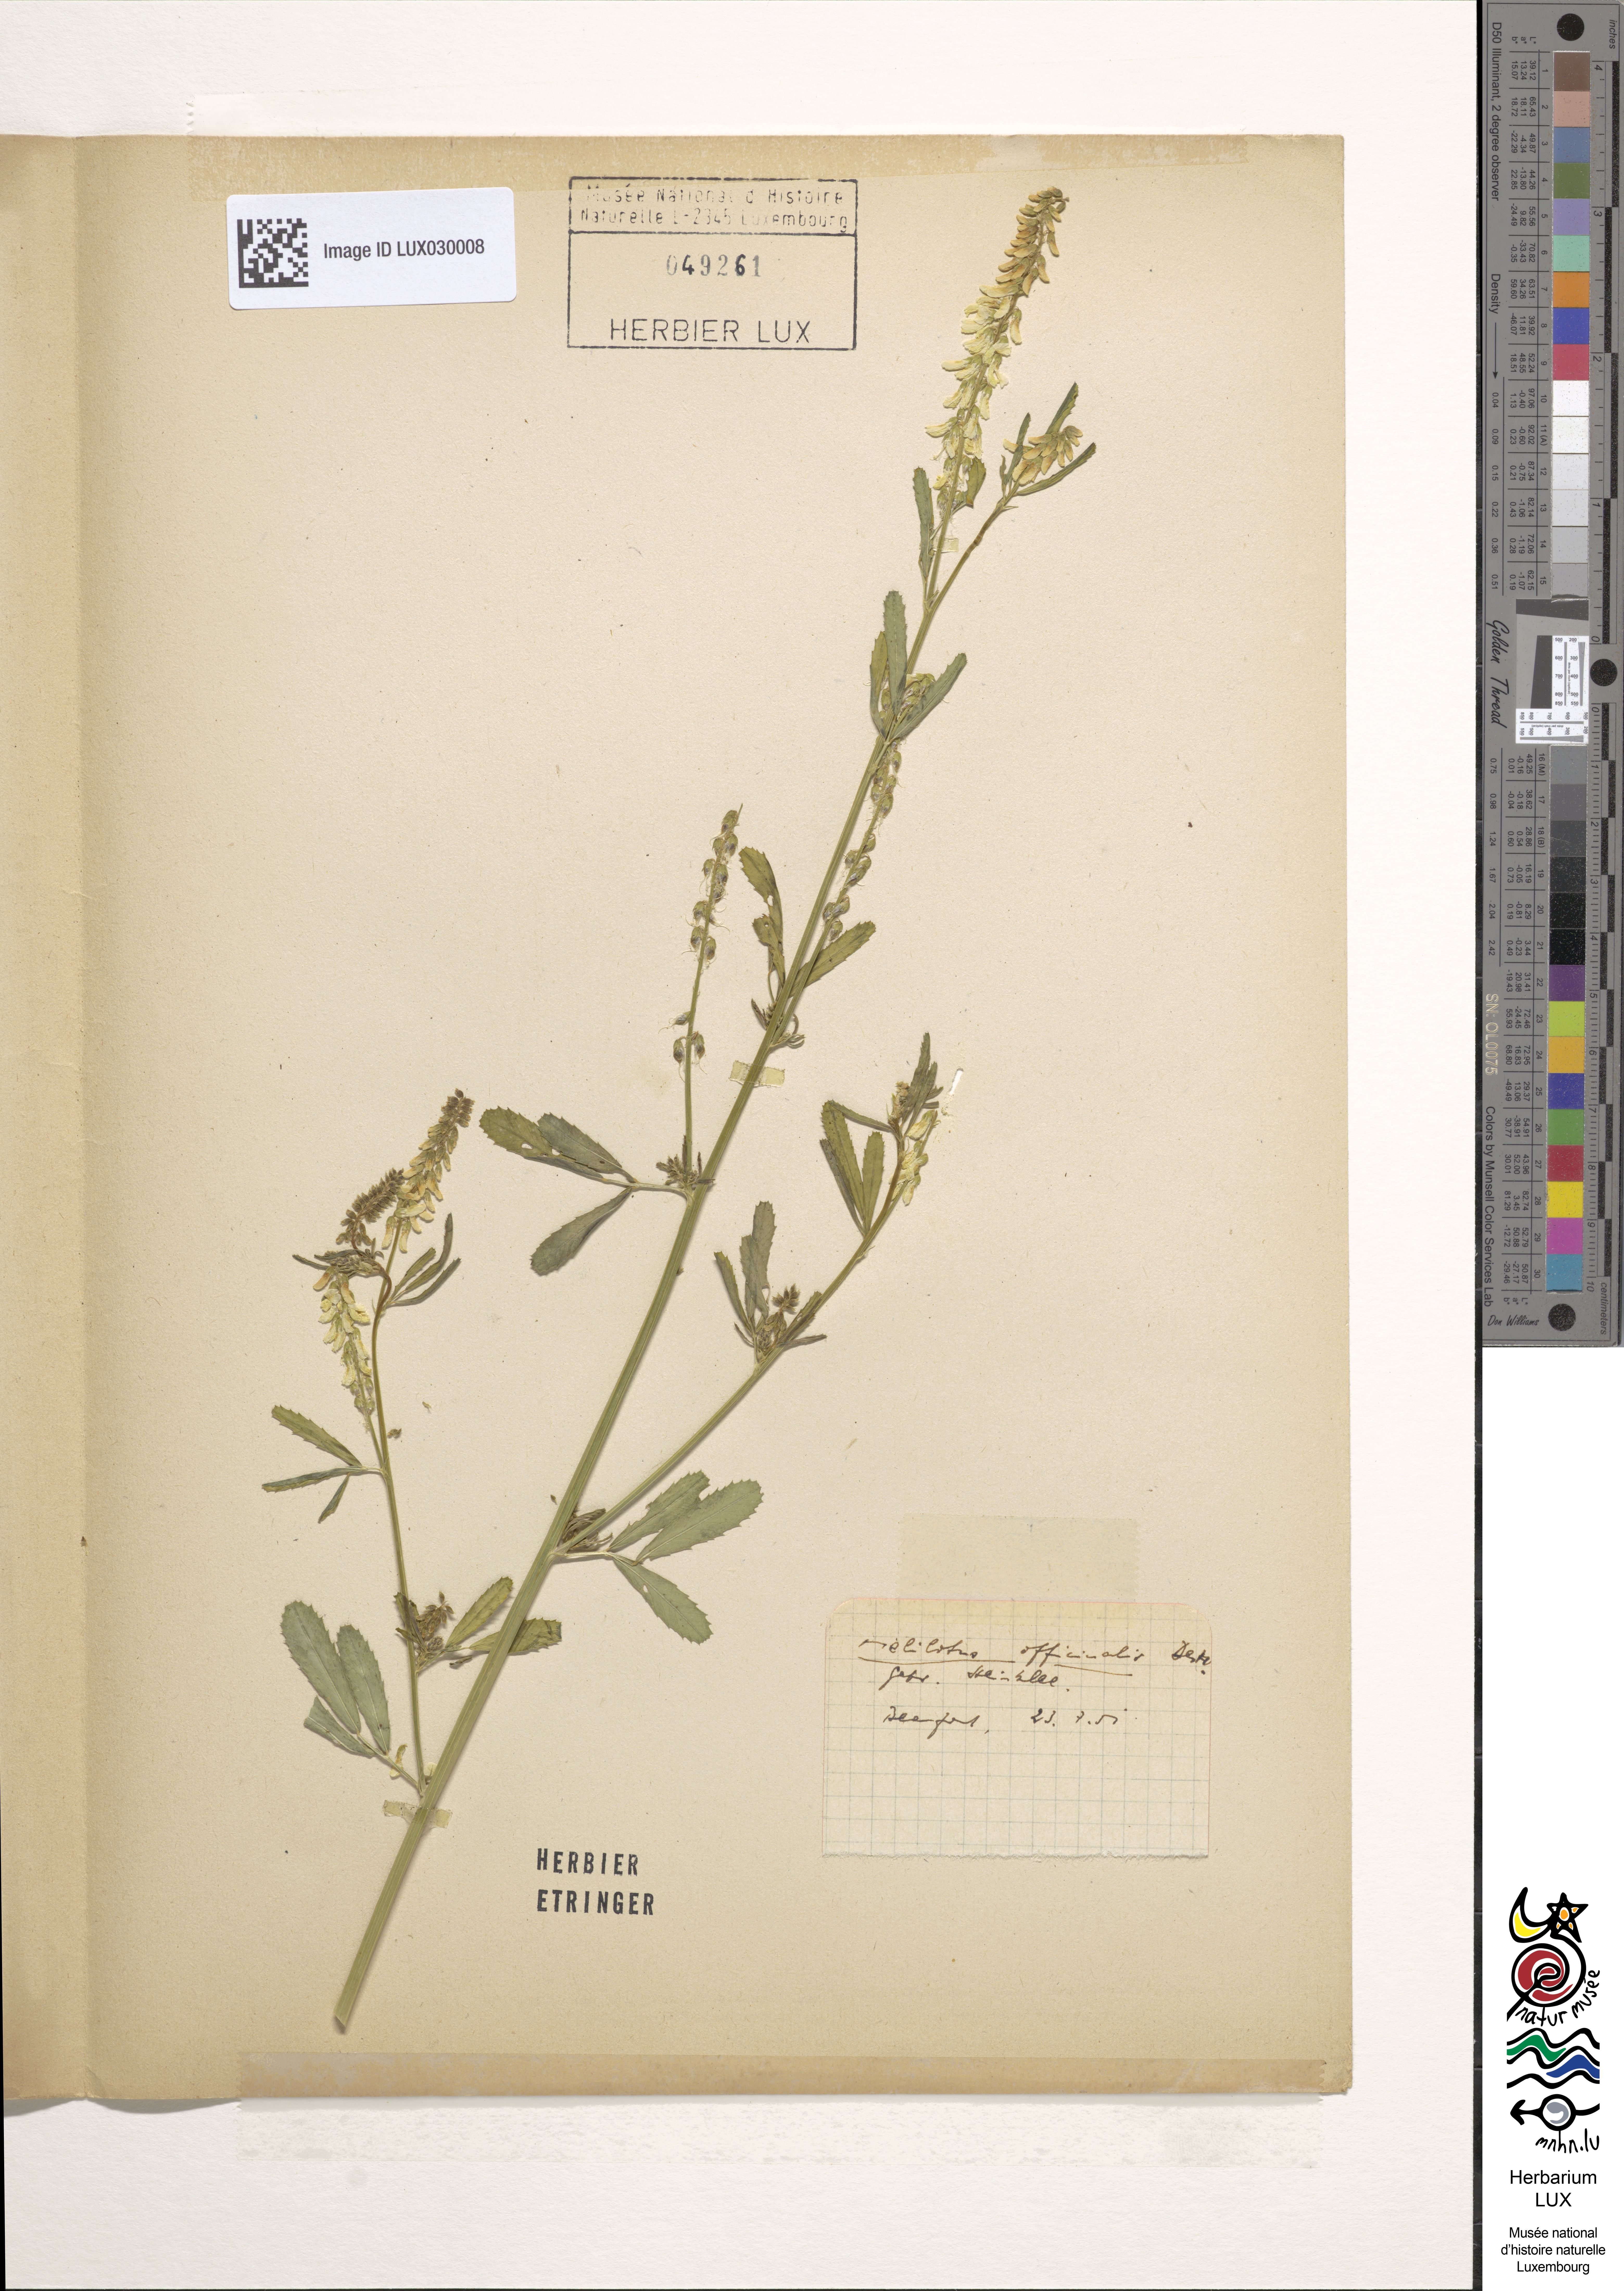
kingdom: Plantae
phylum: Tracheophyta
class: Magnoliopsida
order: Fabales
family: Fabaceae
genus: Melilotus
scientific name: Melilotus officinalis
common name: Sweetclover
